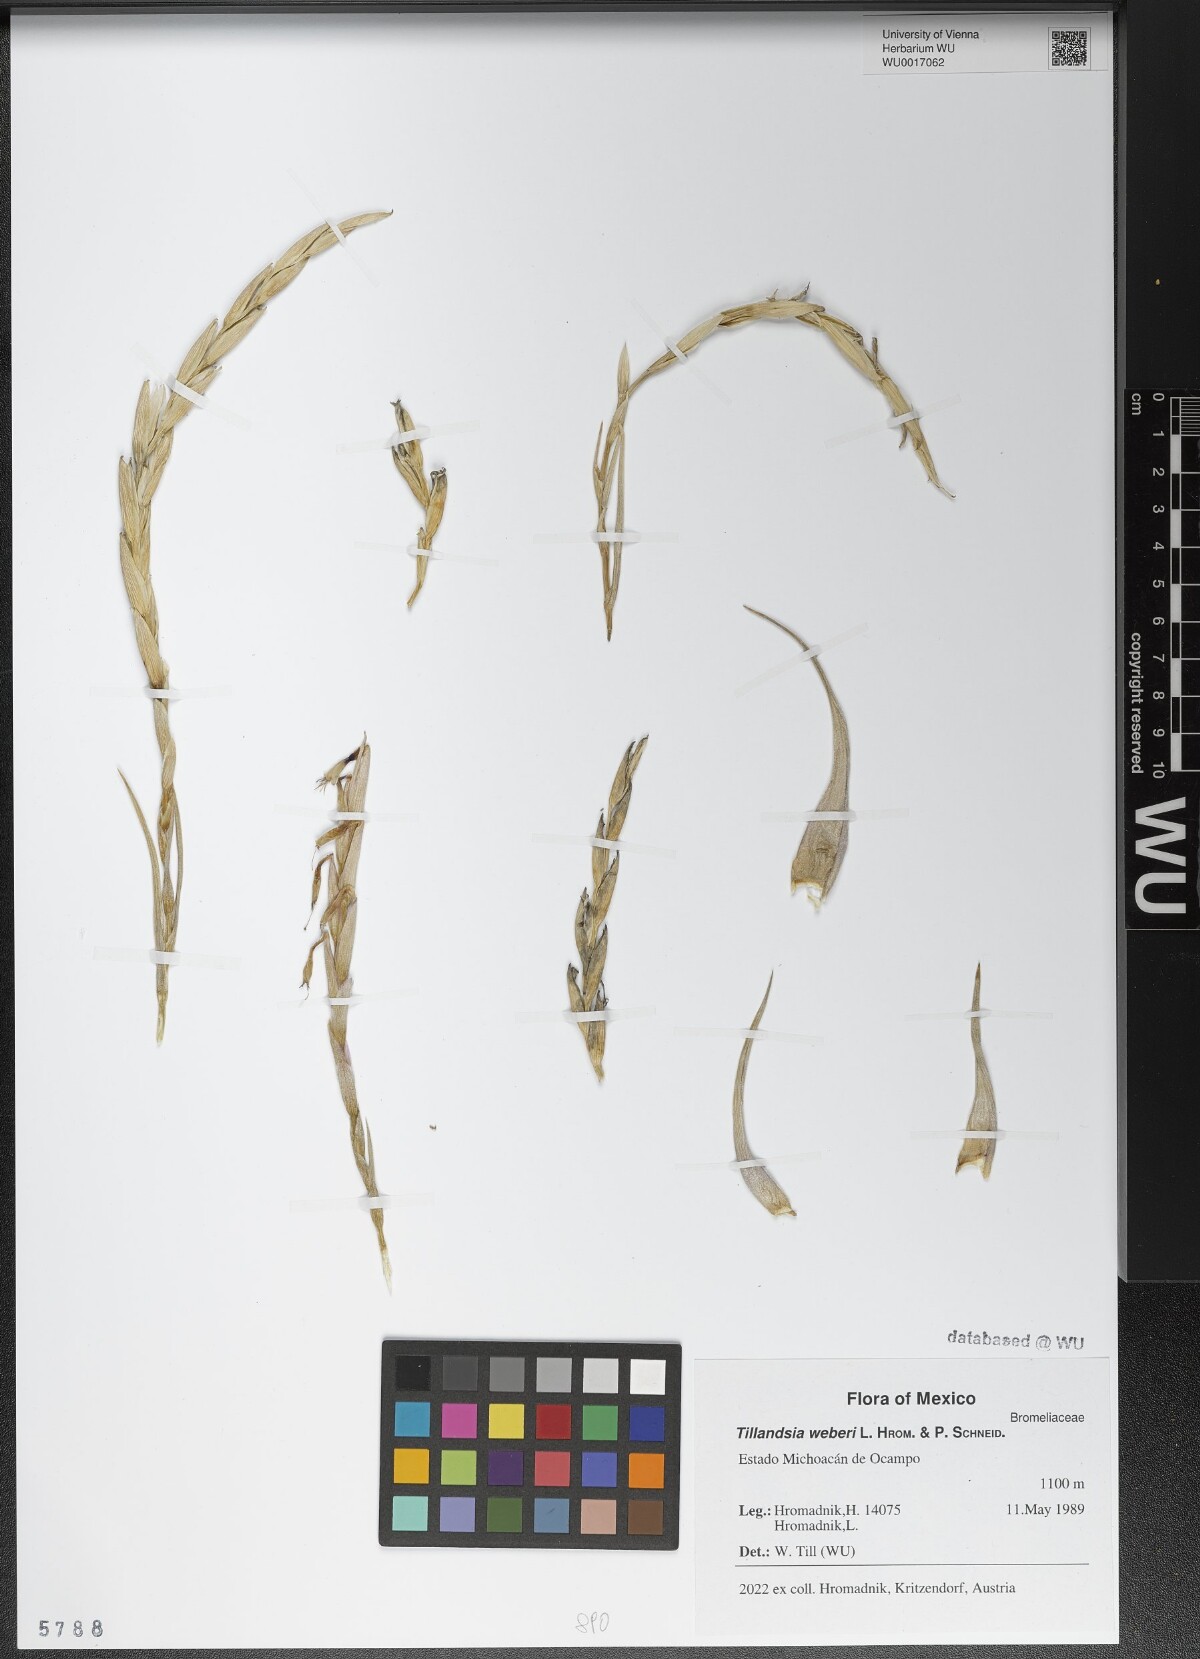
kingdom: Plantae
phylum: Tracheophyta
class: Liliopsida
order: Poales
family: Bromeliaceae
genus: Tillandsia
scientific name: Tillandsia weberi
